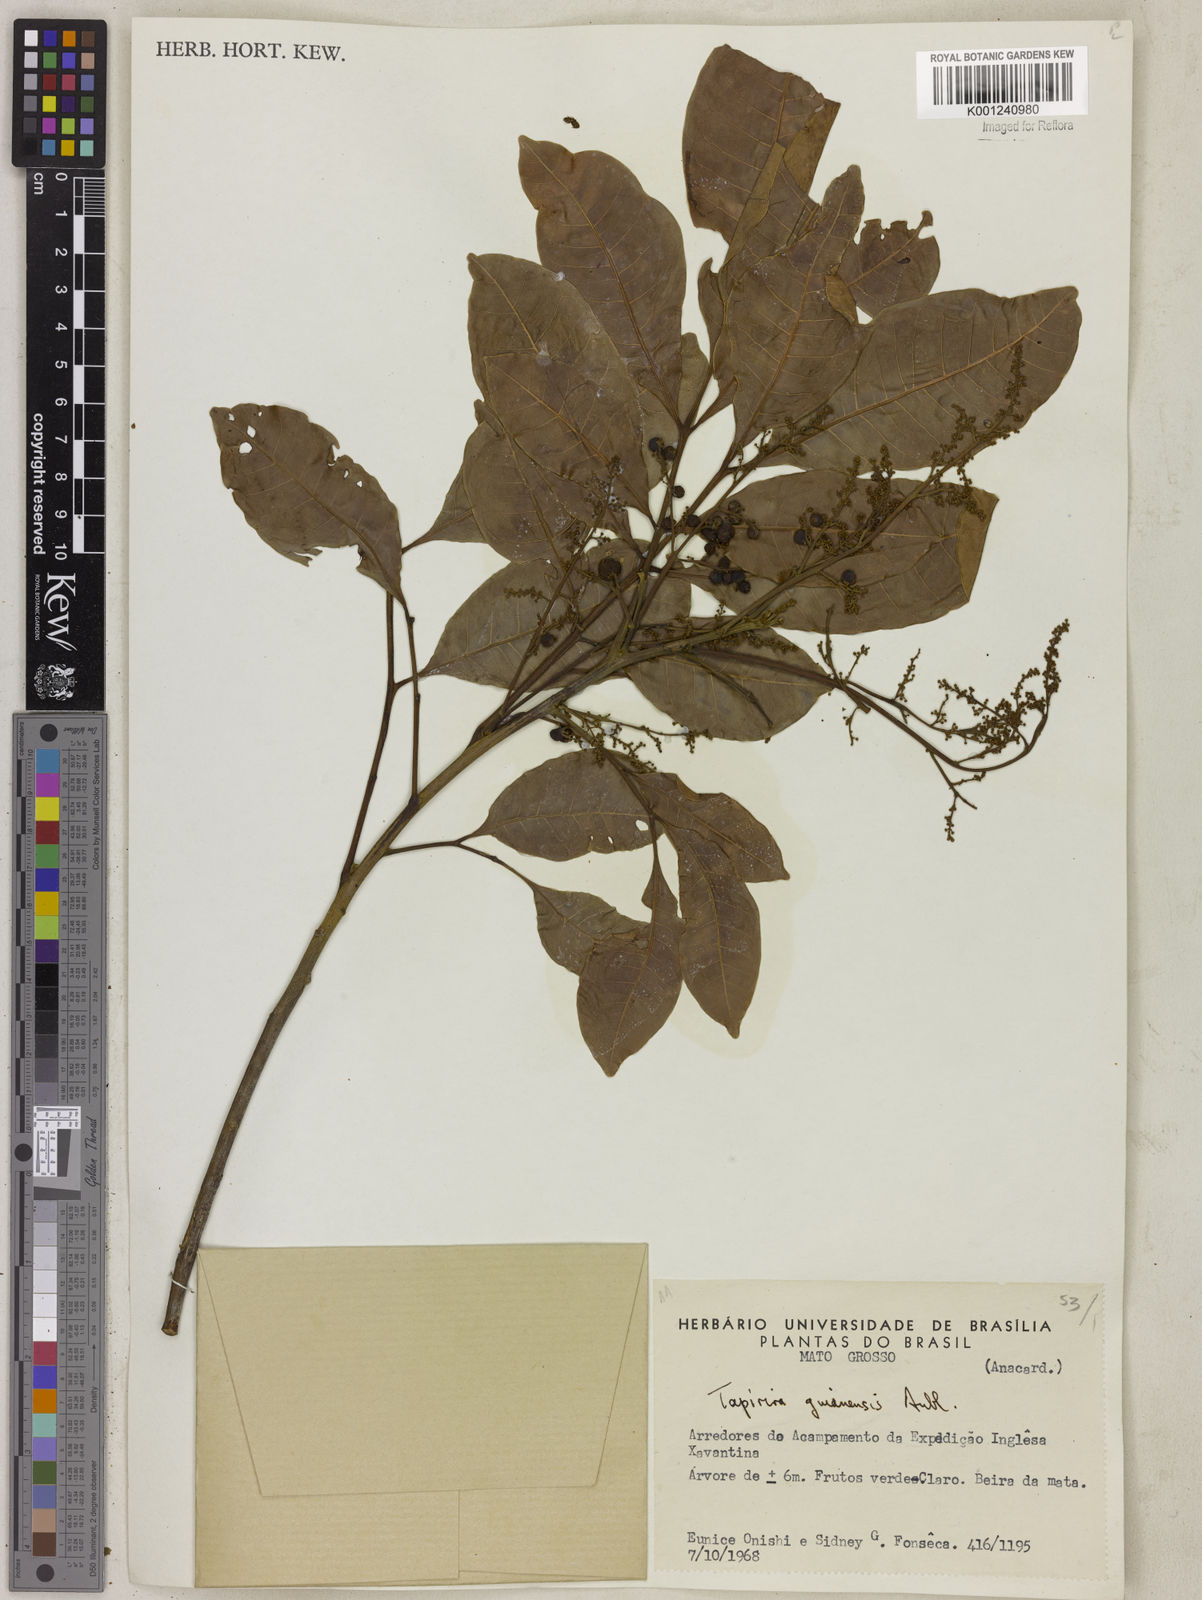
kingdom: Plantae
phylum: Tracheophyta
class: Magnoliopsida
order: Sapindales
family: Anacardiaceae
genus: Tapirira
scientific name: Tapirira guianensis
